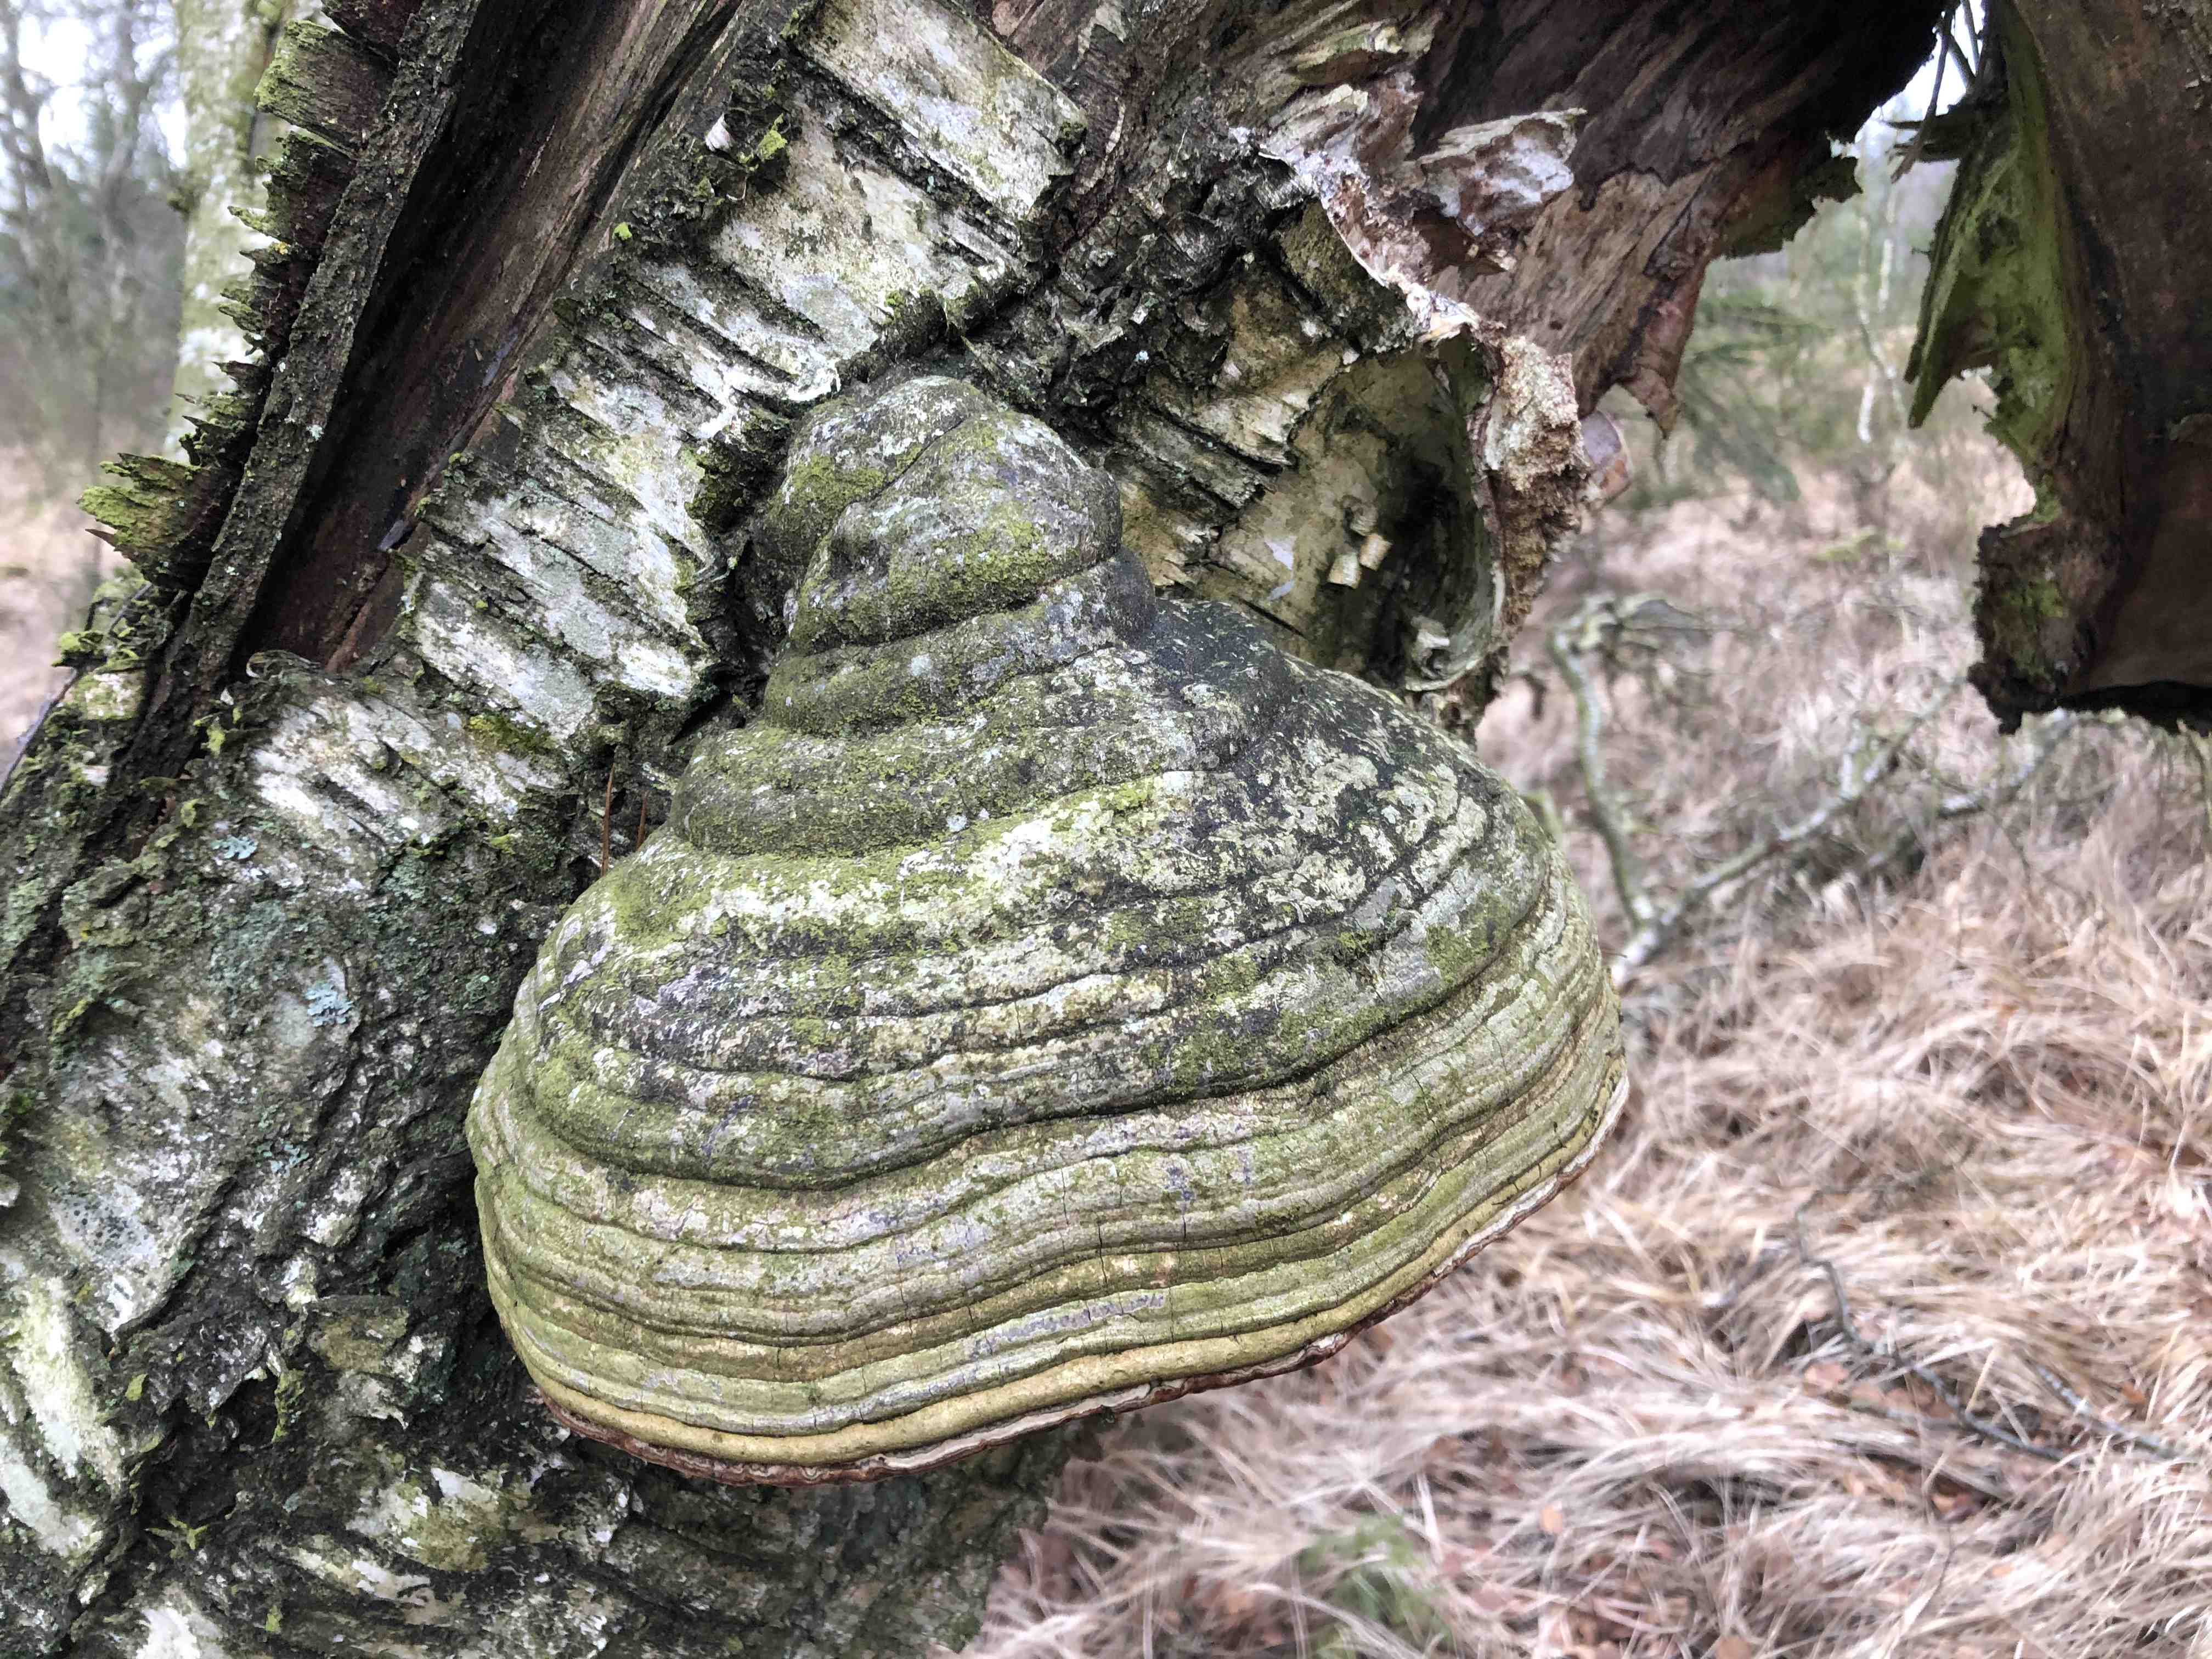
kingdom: Fungi
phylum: Basidiomycota
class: Agaricomycetes
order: Polyporales
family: Polyporaceae
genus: Fomes
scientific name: Fomes fomentarius
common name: tøndersvamp
